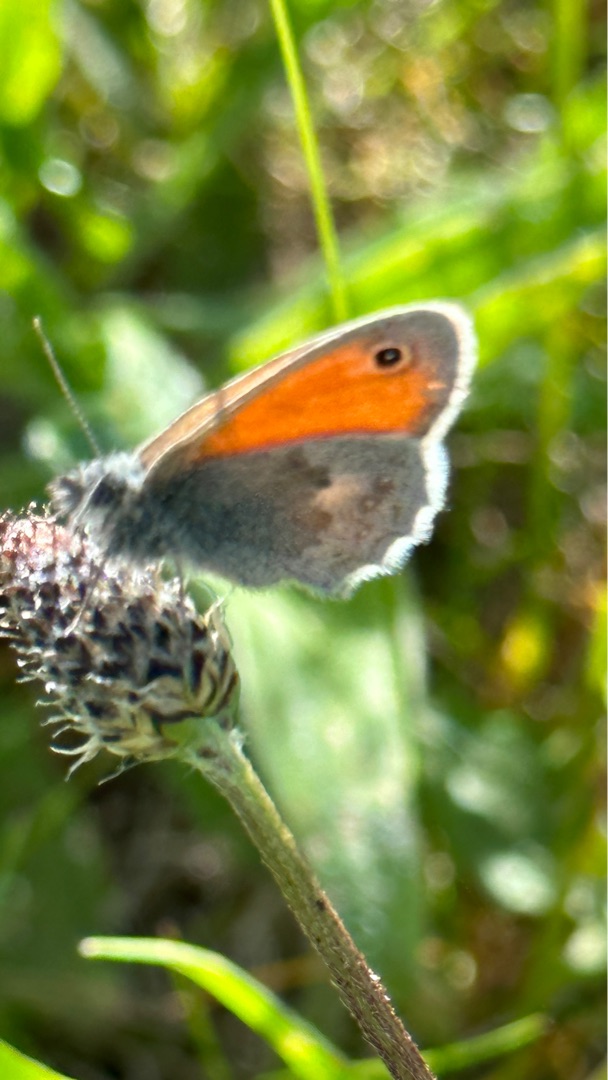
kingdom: Animalia
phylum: Arthropoda
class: Insecta
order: Lepidoptera
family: Nymphalidae
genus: Coenonympha
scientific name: Coenonympha pamphilus
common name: Okkergul randøje
